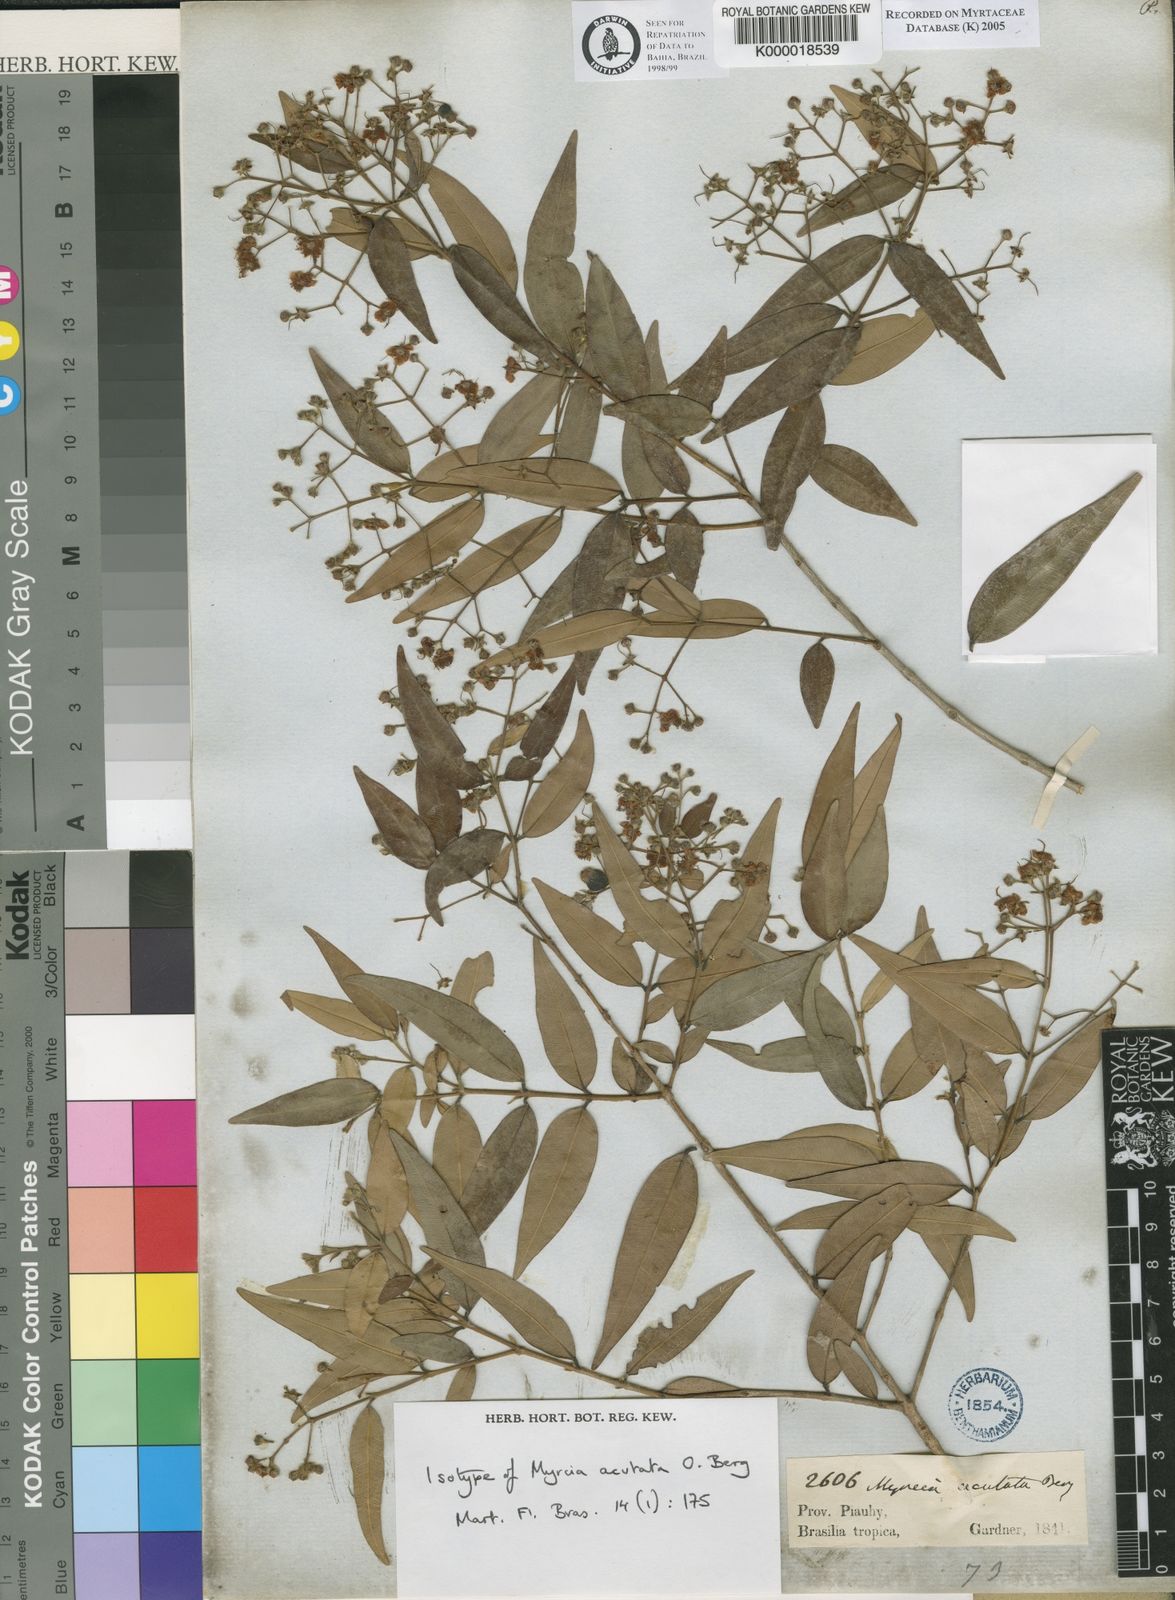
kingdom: Plantae
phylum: Tracheophyta
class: Magnoliopsida
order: Myrtales
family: Myrtaceae
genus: Myrcia
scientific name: Myrcia splendens
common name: Surinam cherry
